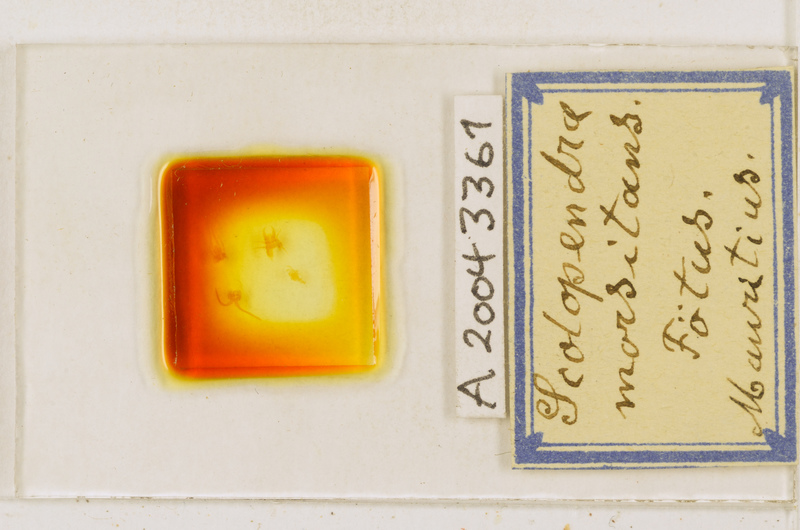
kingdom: Animalia
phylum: Arthropoda
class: Chilopoda
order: Scolopendromorpha
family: Scolopendridae
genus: Scolopendra
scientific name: Scolopendra morsitans
